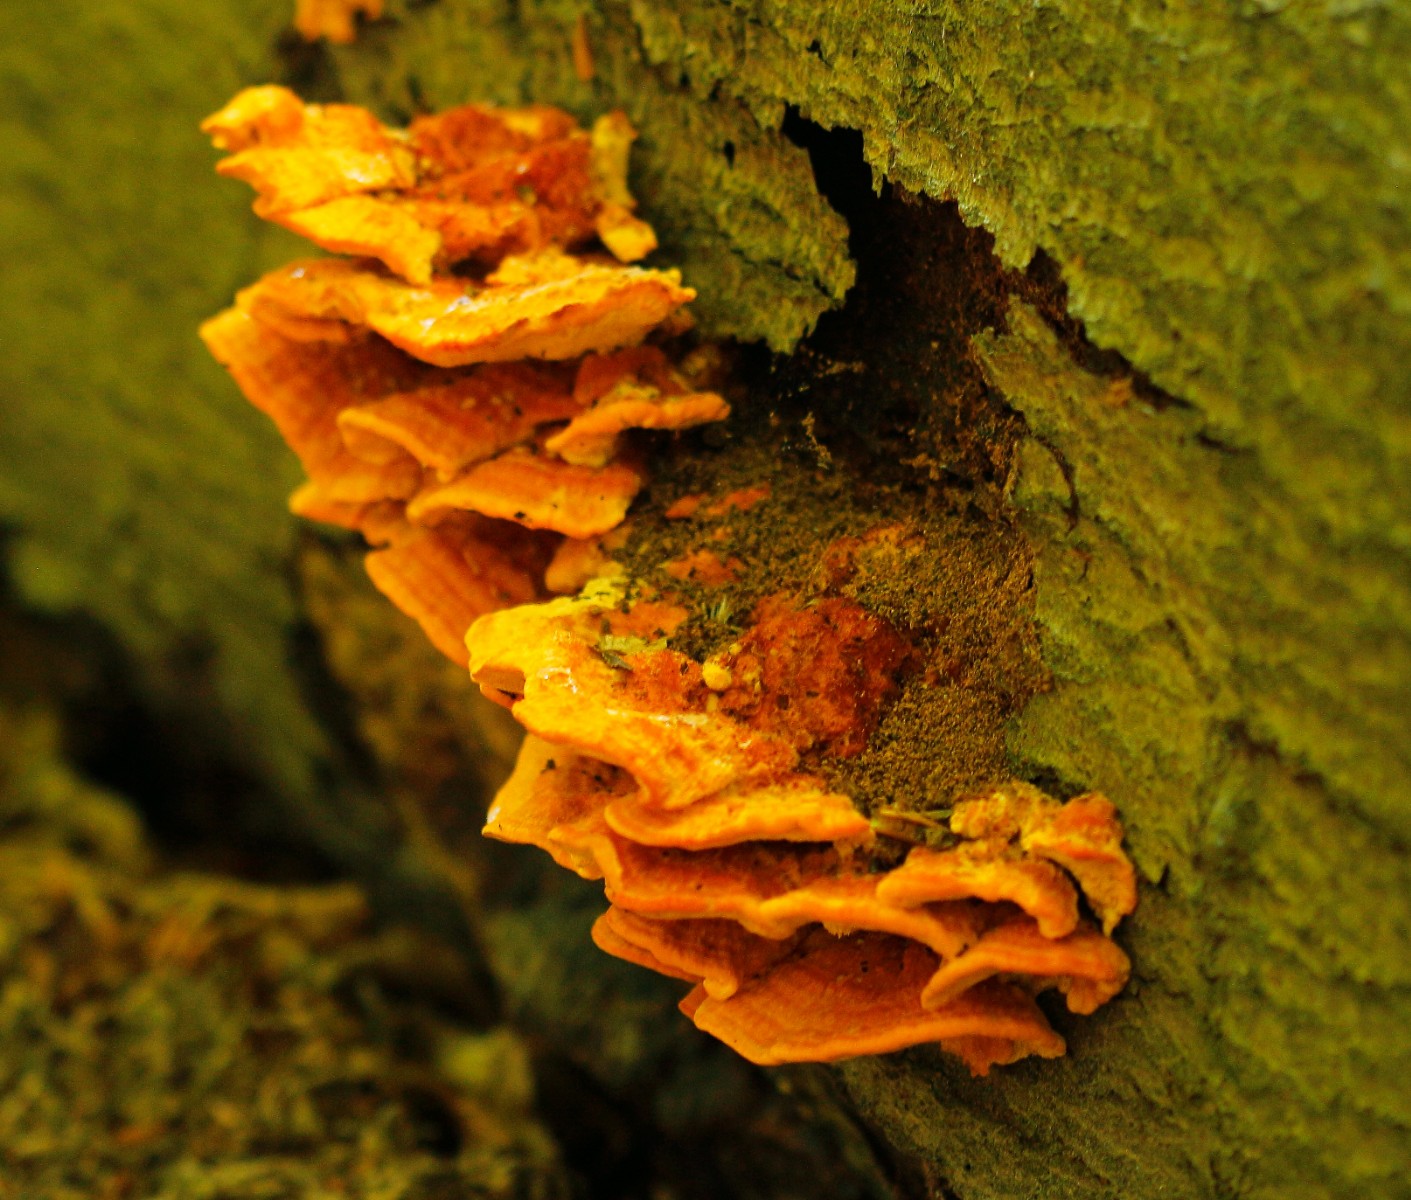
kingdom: Fungi
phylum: Basidiomycota
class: Agaricomycetes
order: Polyporales
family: Pycnoporellaceae
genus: Pycnoporellus
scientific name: Pycnoporellus fulgens
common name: flammeporesvamp
